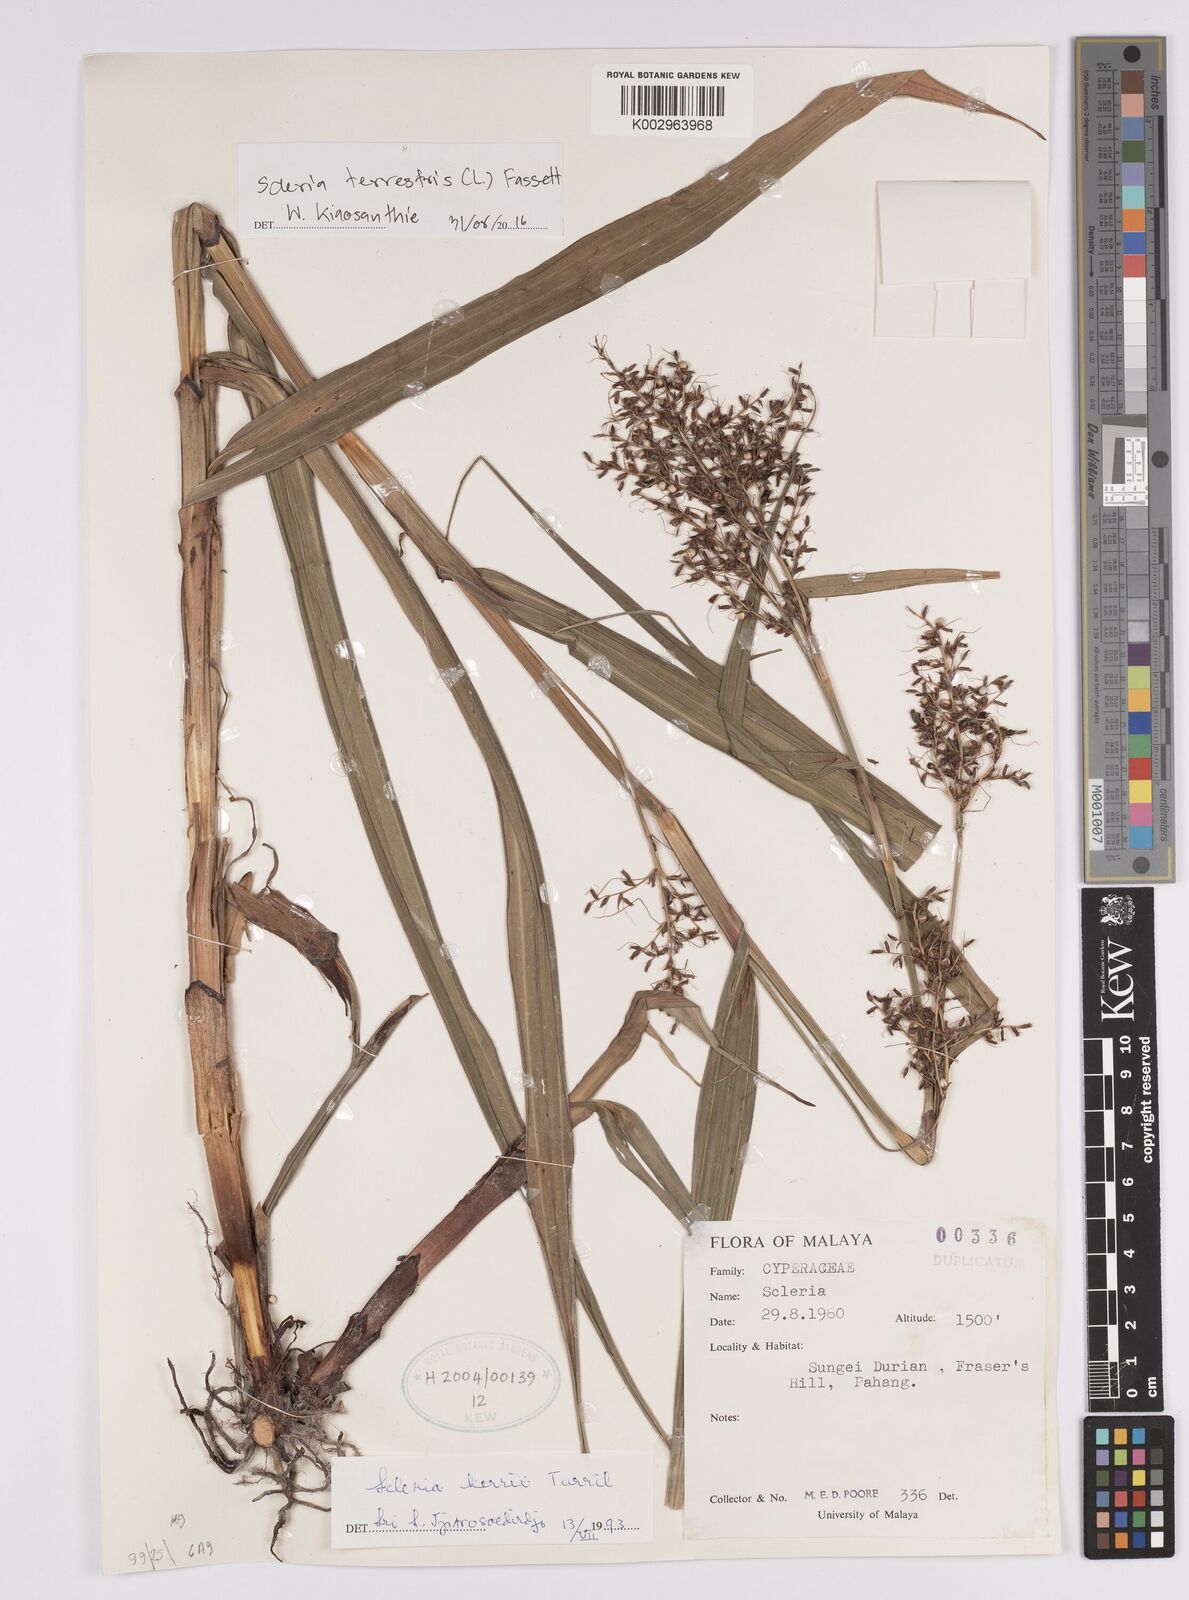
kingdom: Plantae
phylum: Tracheophyta
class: Liliopsida
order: Poales
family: Cyperaceae
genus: Scleria
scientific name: Scleria terrestris
